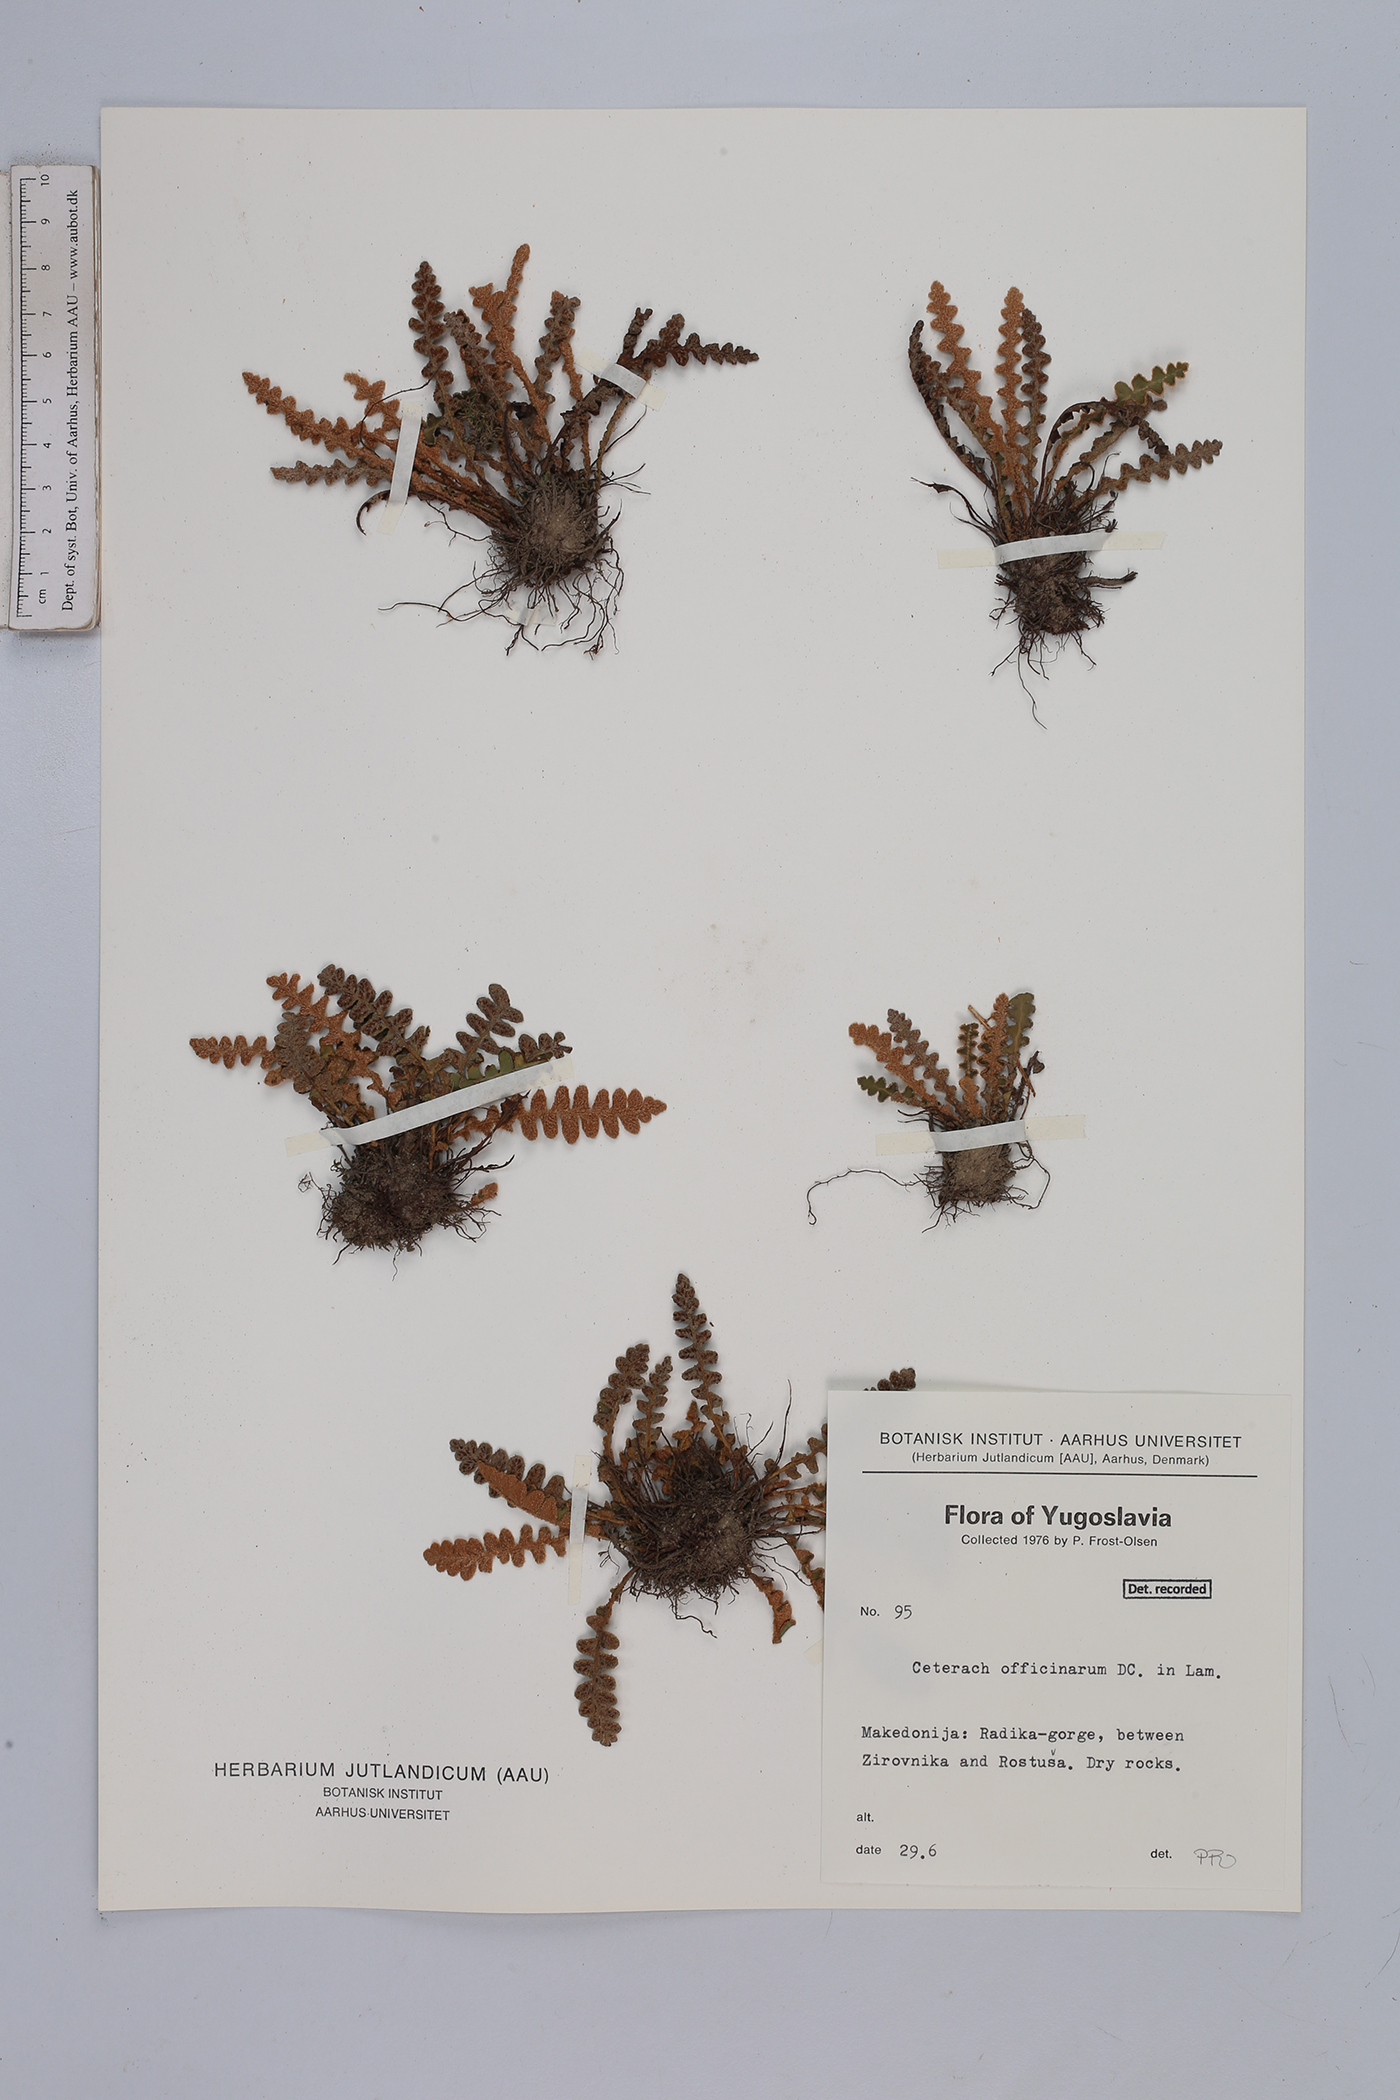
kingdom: Plantae
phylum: Tracheophyta
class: Polypodiopsida
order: Polypodiales
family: Aspleniaceae
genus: Asplenium
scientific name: Asplenium ceterach
